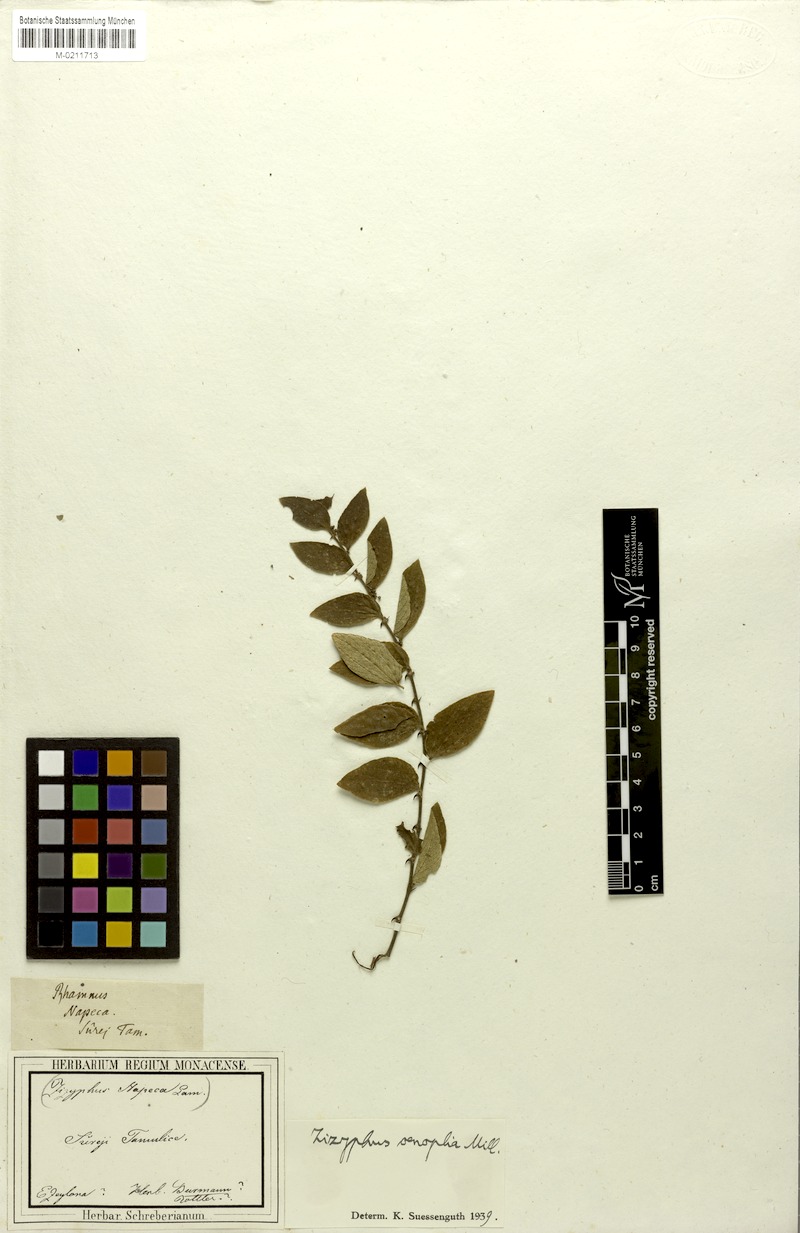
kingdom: Plantae
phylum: Tracheophyta
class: Magnoliopsida
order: Rosales
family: Rhamnaceae
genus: Ziziphus
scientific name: Ziziphus oenopolia
